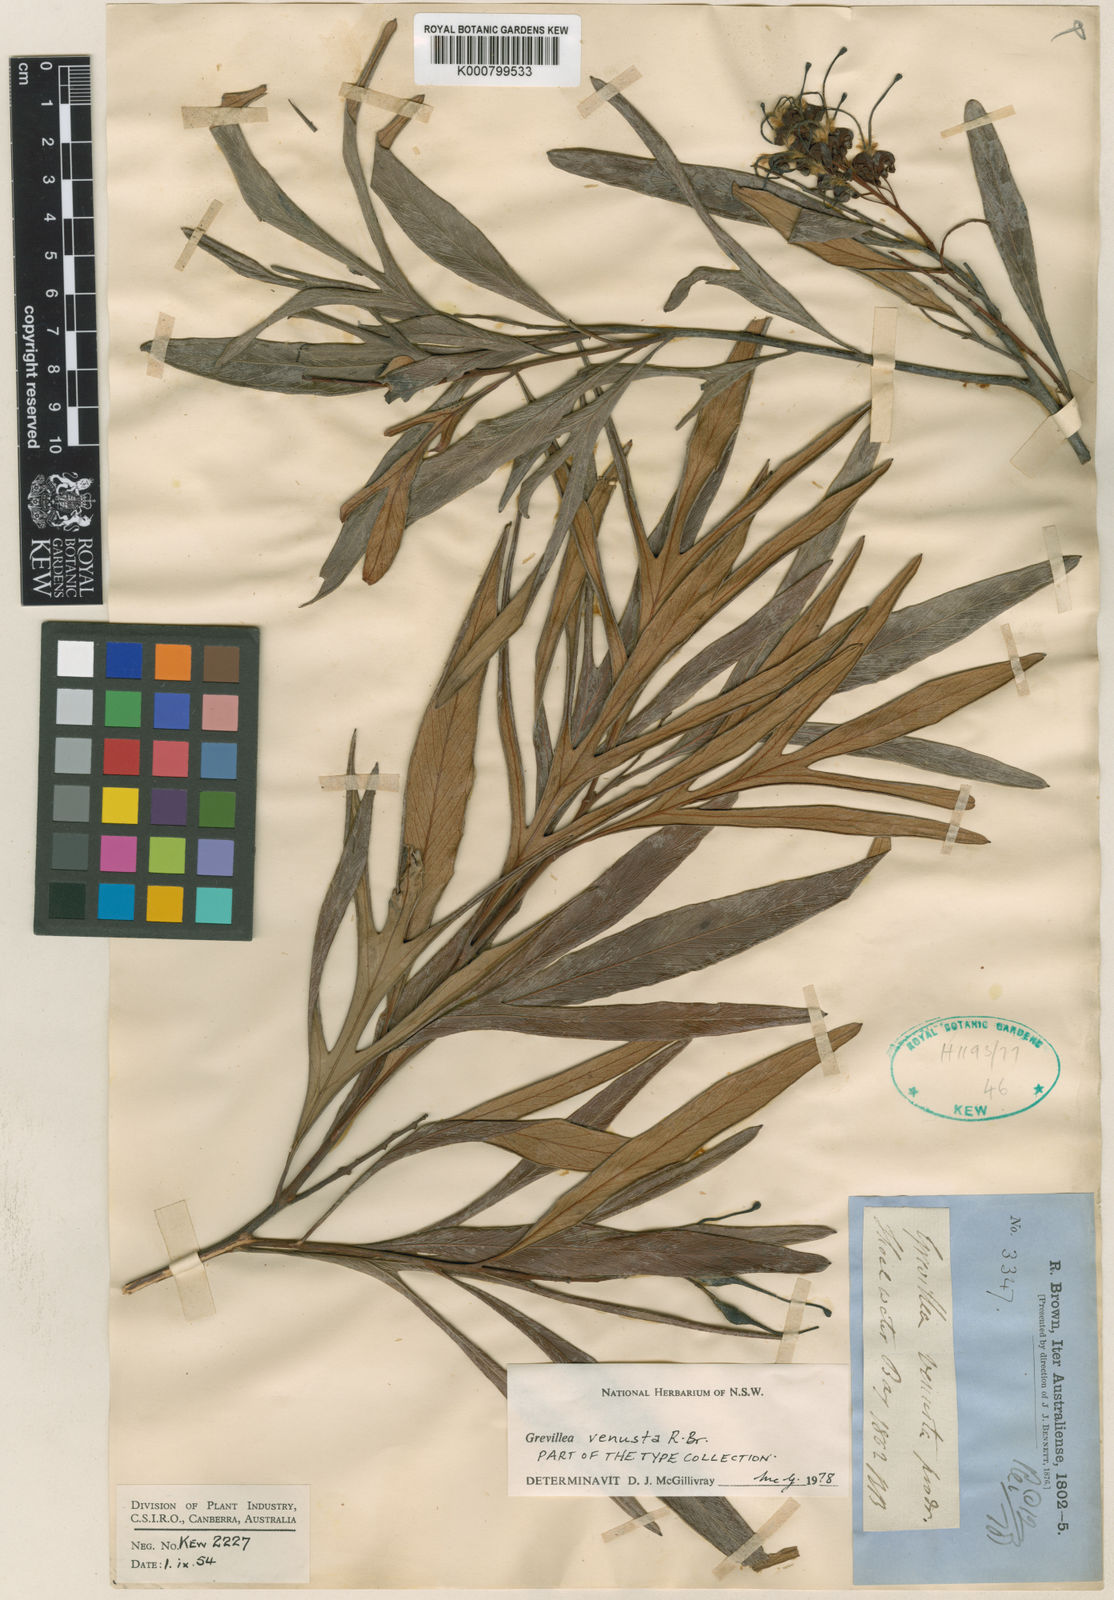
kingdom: Plantae
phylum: Tracheophyta
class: Magnoliopsida
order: Proteales
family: Proteaceae
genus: Grevillea
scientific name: Grevillea venusta
